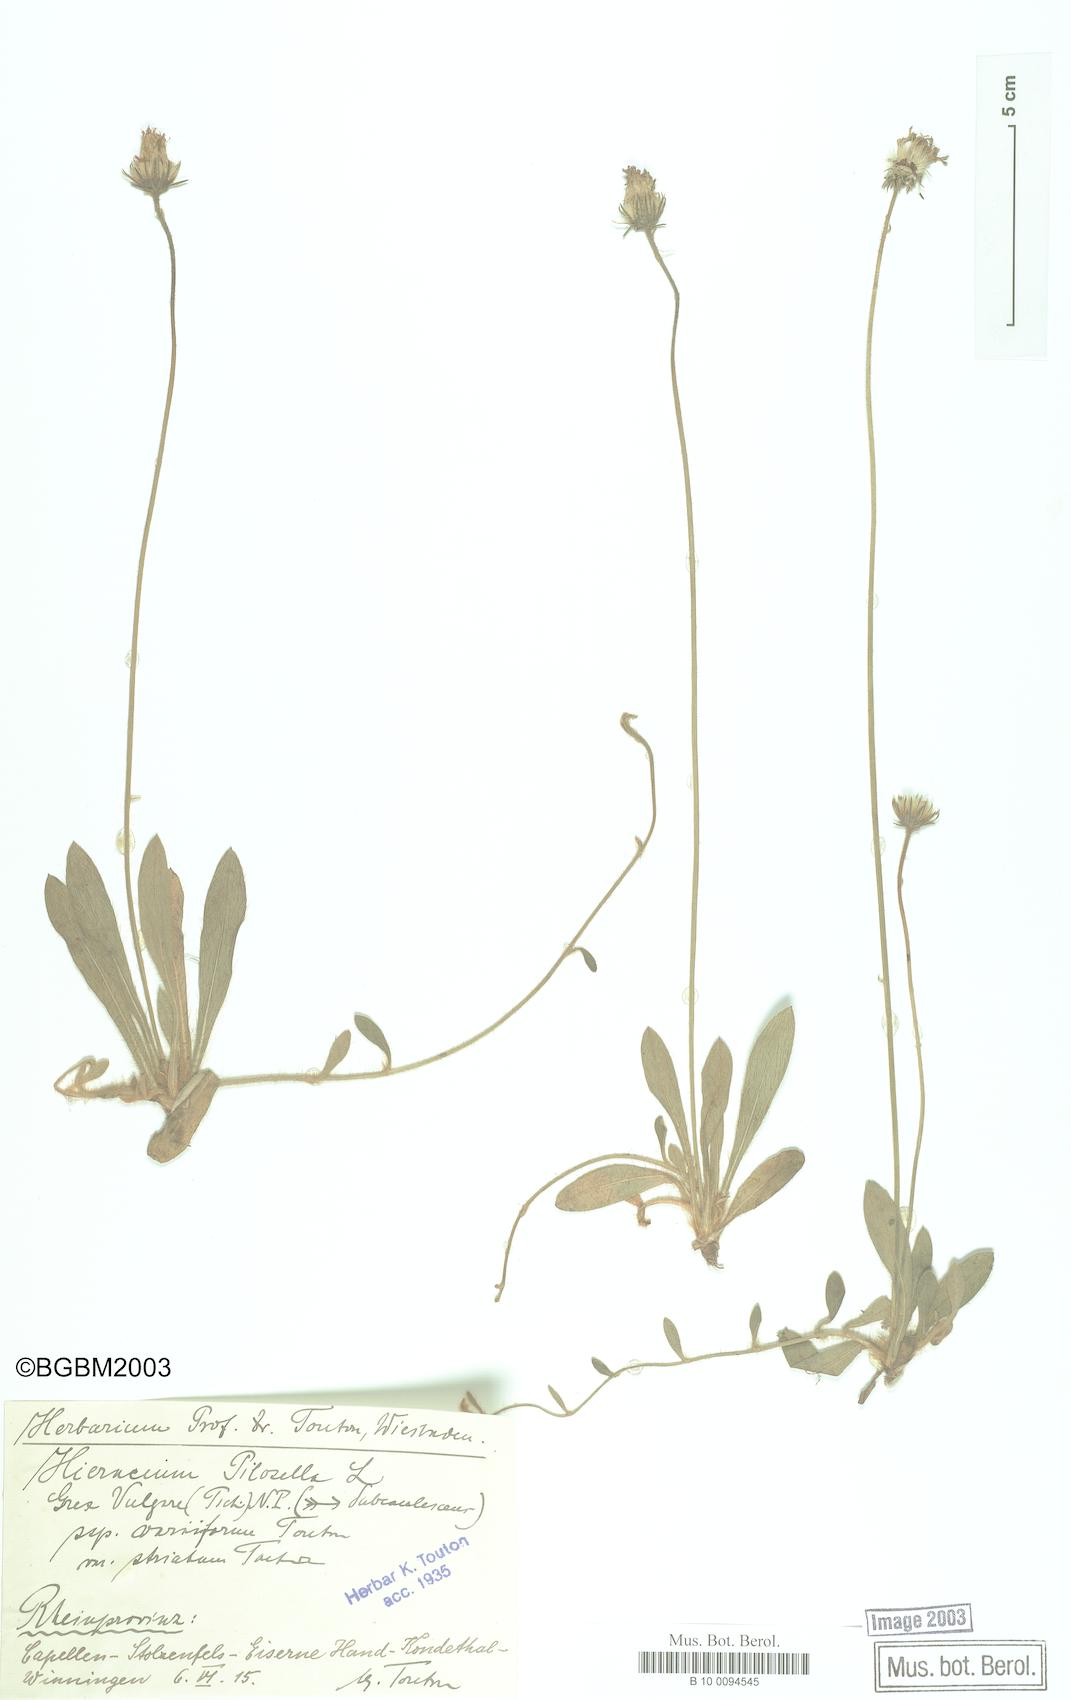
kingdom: Plantae
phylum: Tracheophyta
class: Magnoliopsida
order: Asterales
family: Asteraceae
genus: Pilosella
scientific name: Pilosella officinarum
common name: Mouse-ear hawkweed
